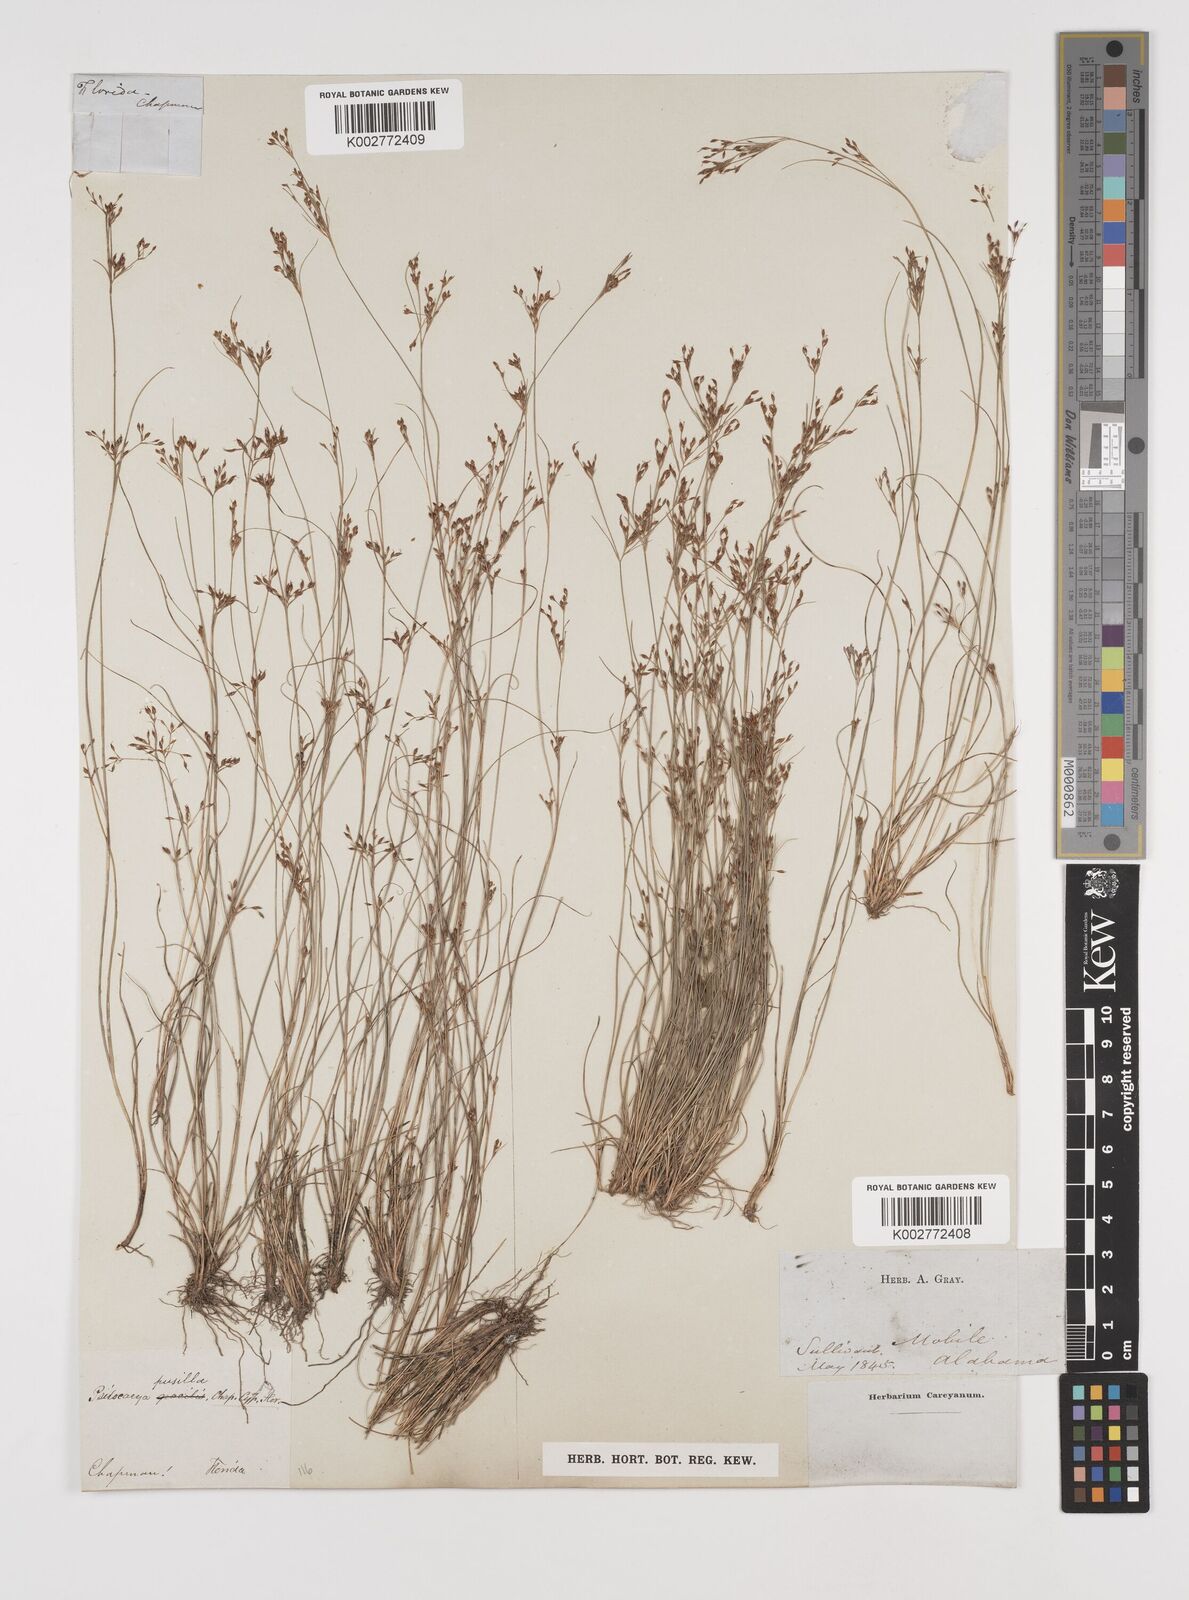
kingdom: Plantae
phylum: Tracheophyta
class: Liliopsida
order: Poales
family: Cyperaceae
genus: Rhynchospora
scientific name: Rhynchospora intermixta
